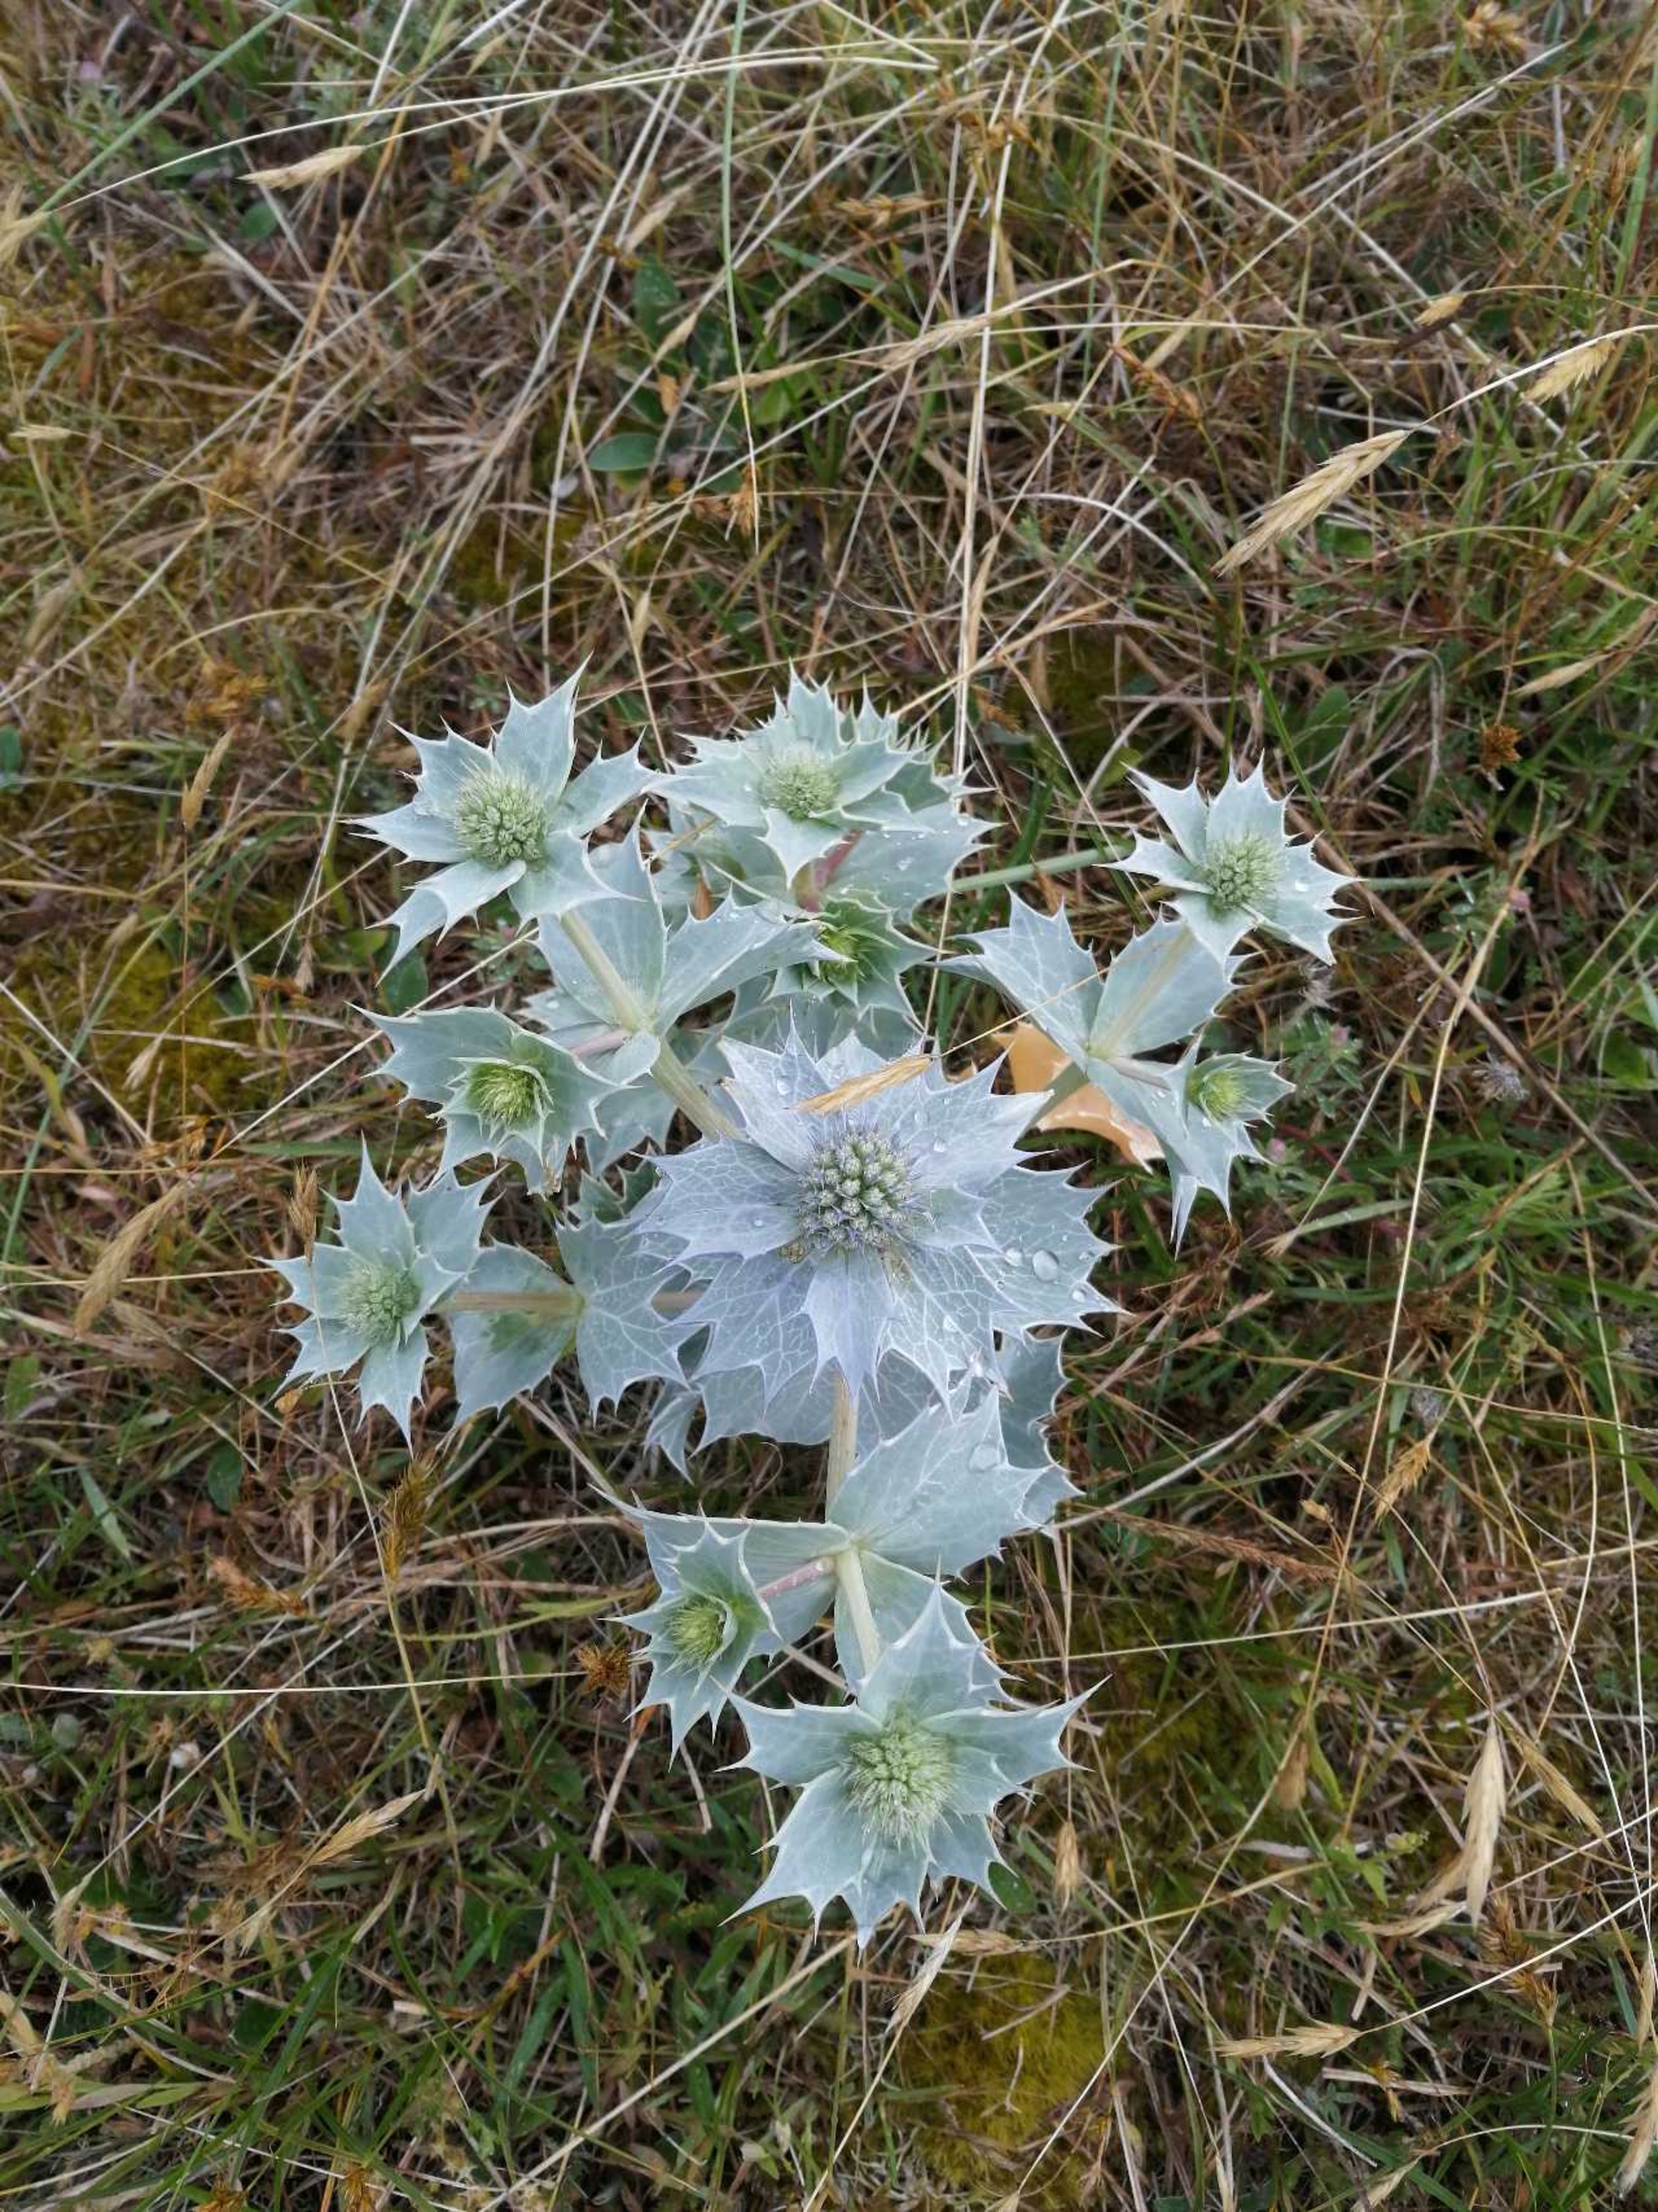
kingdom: Plantae
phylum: Tracheophyta
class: Magnoliopsida
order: Apiales
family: Apiaceae
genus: Eryngium
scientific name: Eryngium maritimum
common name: Strand-mandstro
